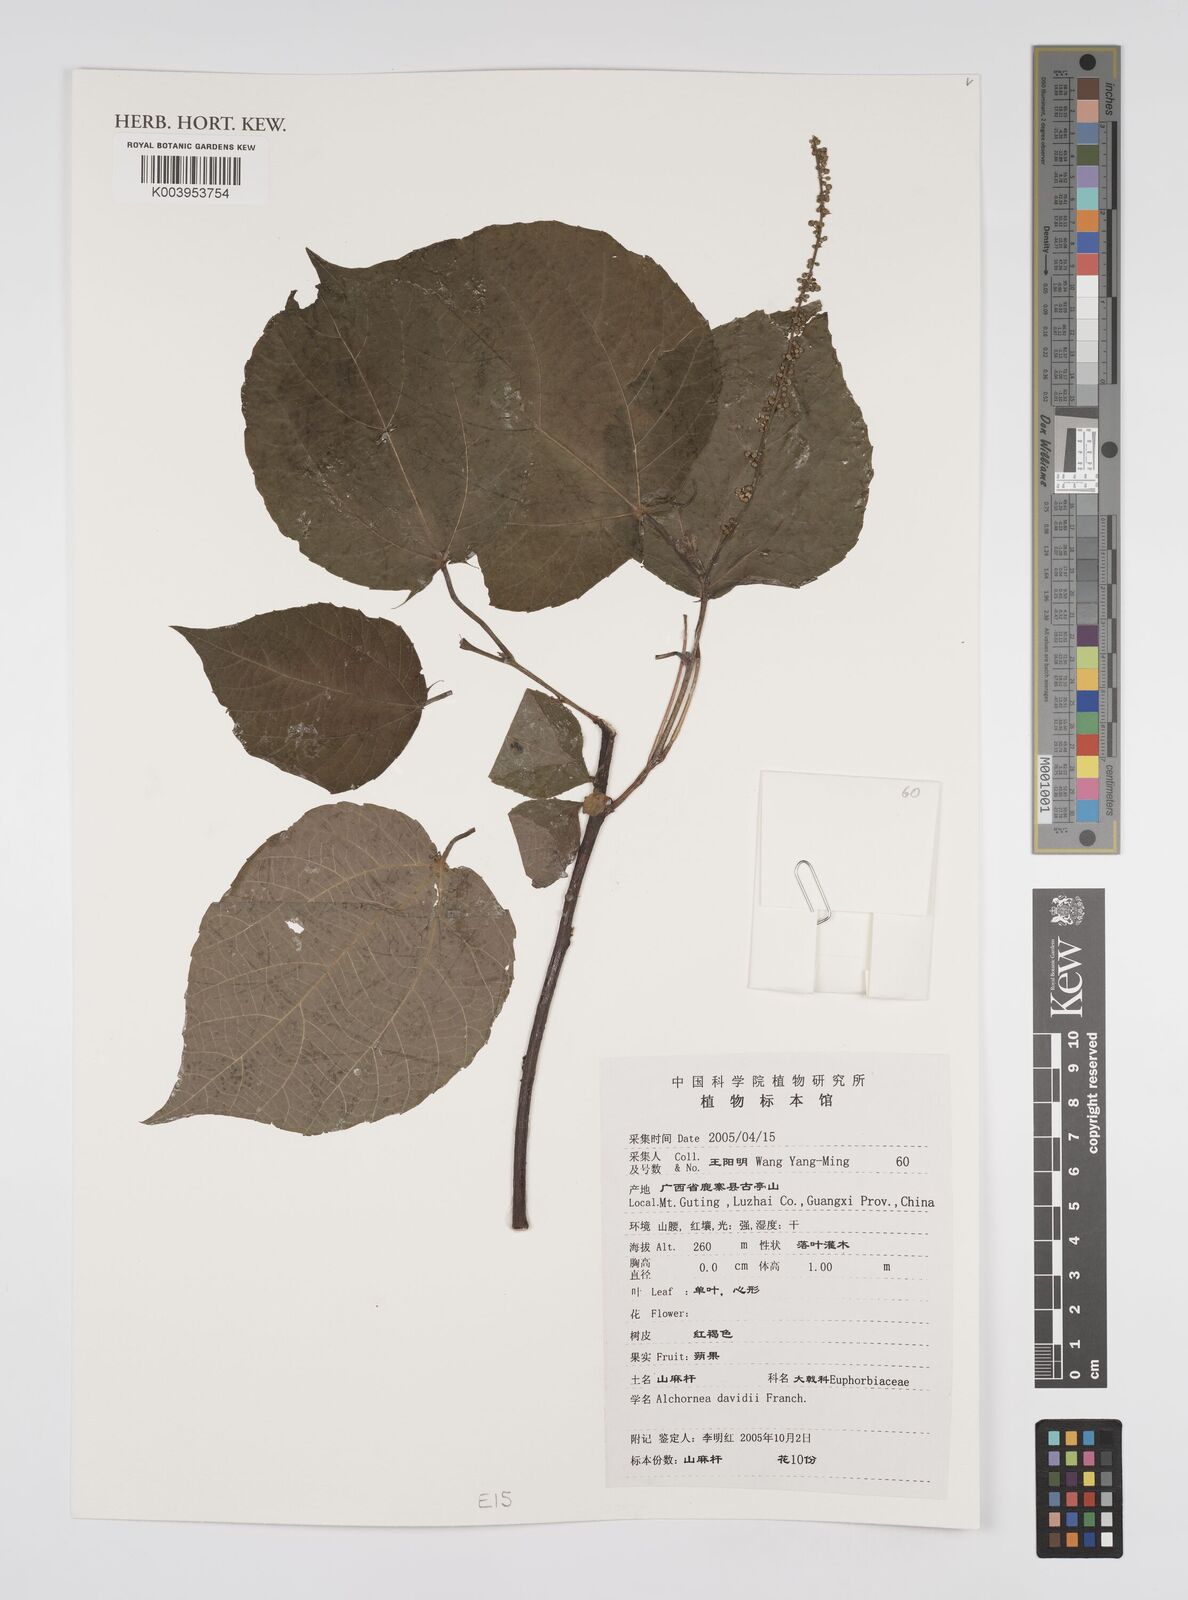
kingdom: Plantae
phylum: Tracheophyta
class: Magnoliopsida
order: Malpighiales
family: Euphorbiaceae
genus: Alchornea
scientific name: Alchornea davidii
